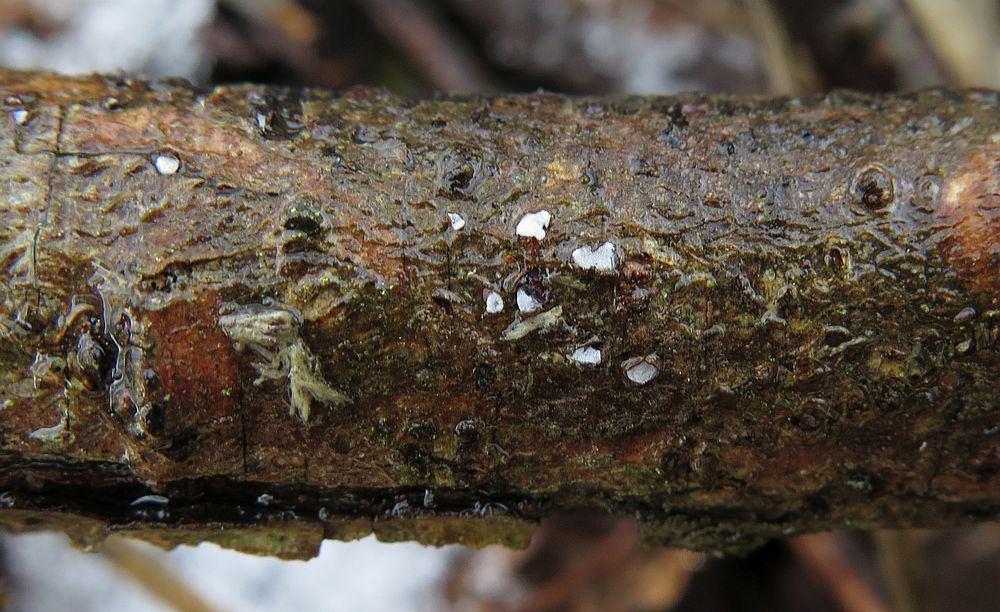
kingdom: Fungi
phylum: Ascomycota
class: Leotiomycetes
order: Chaetomellales
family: Marthamycetaceae
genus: Propolis
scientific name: Propolis farinosa
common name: almindelig vedsprængerskive
